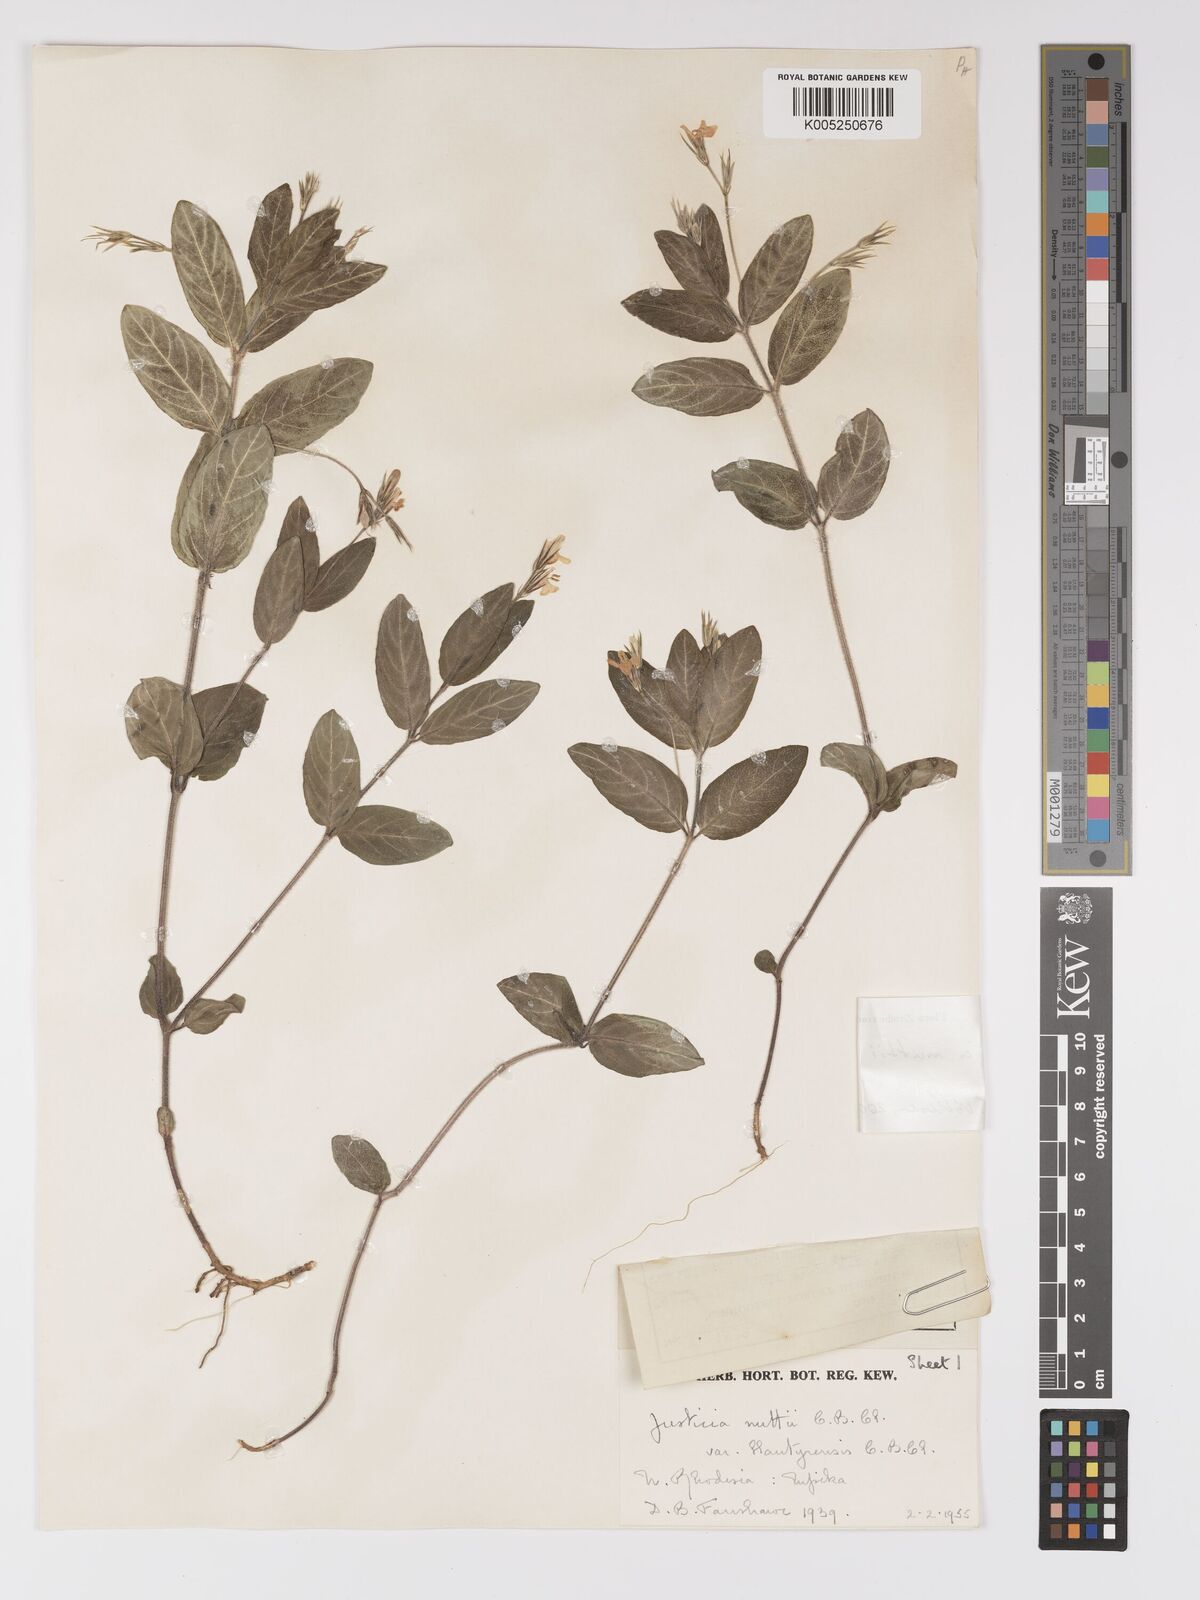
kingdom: Plantae
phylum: Tracheophyta
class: Magnoliopsida
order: Lamiales
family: Acanthaceae
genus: Justicia
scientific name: Justicia nuttii
